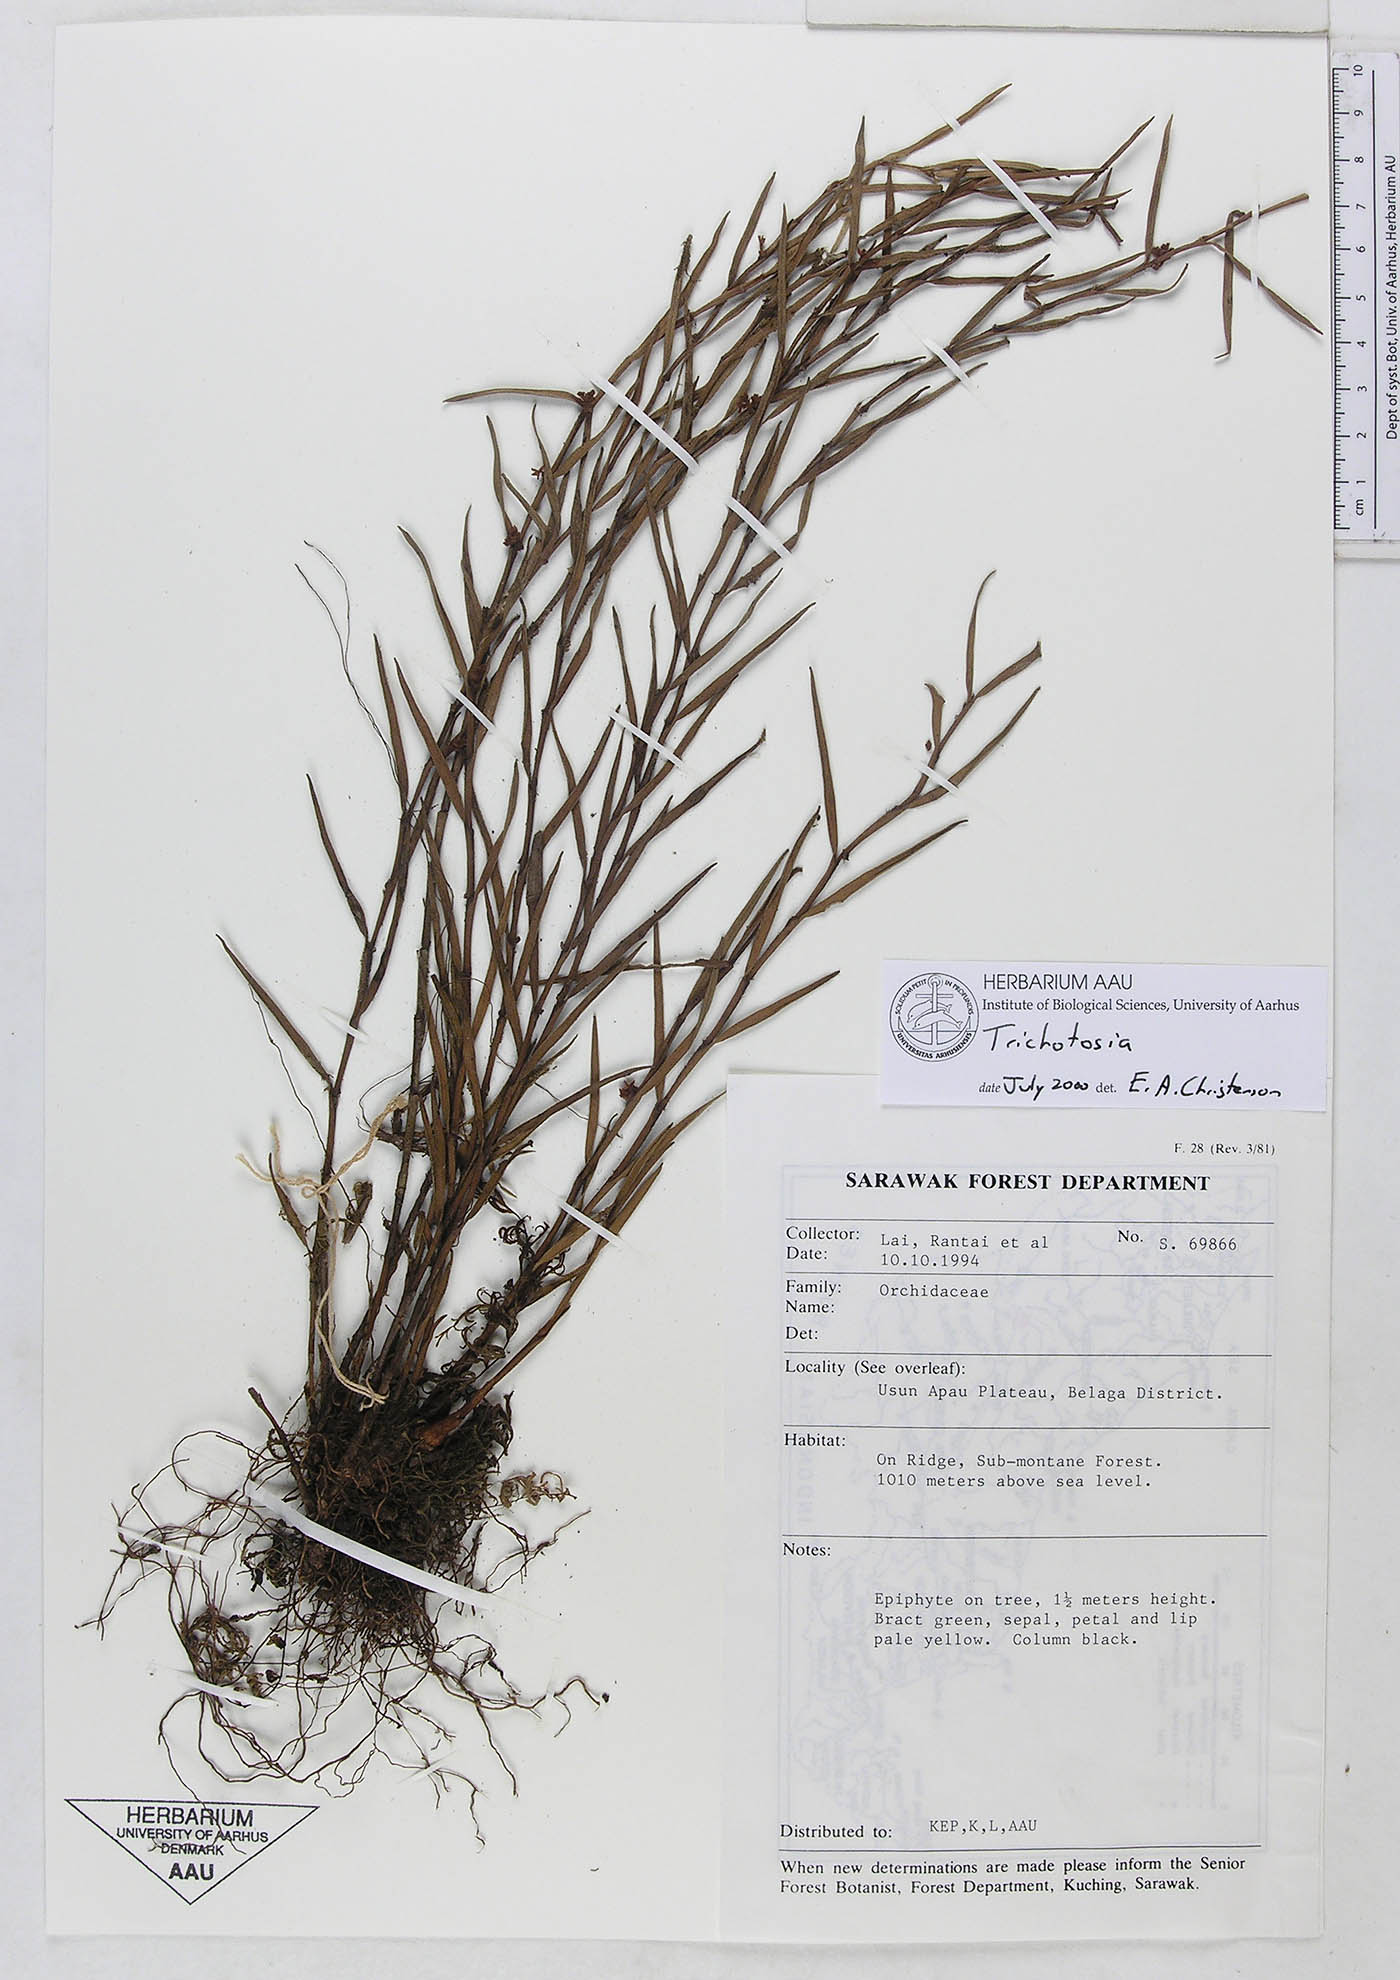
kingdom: Plantae
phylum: Tracheophyta
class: Liliopsida
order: Asparagales
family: Orchidaceae
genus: Trichotosia
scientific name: Trichotosia
